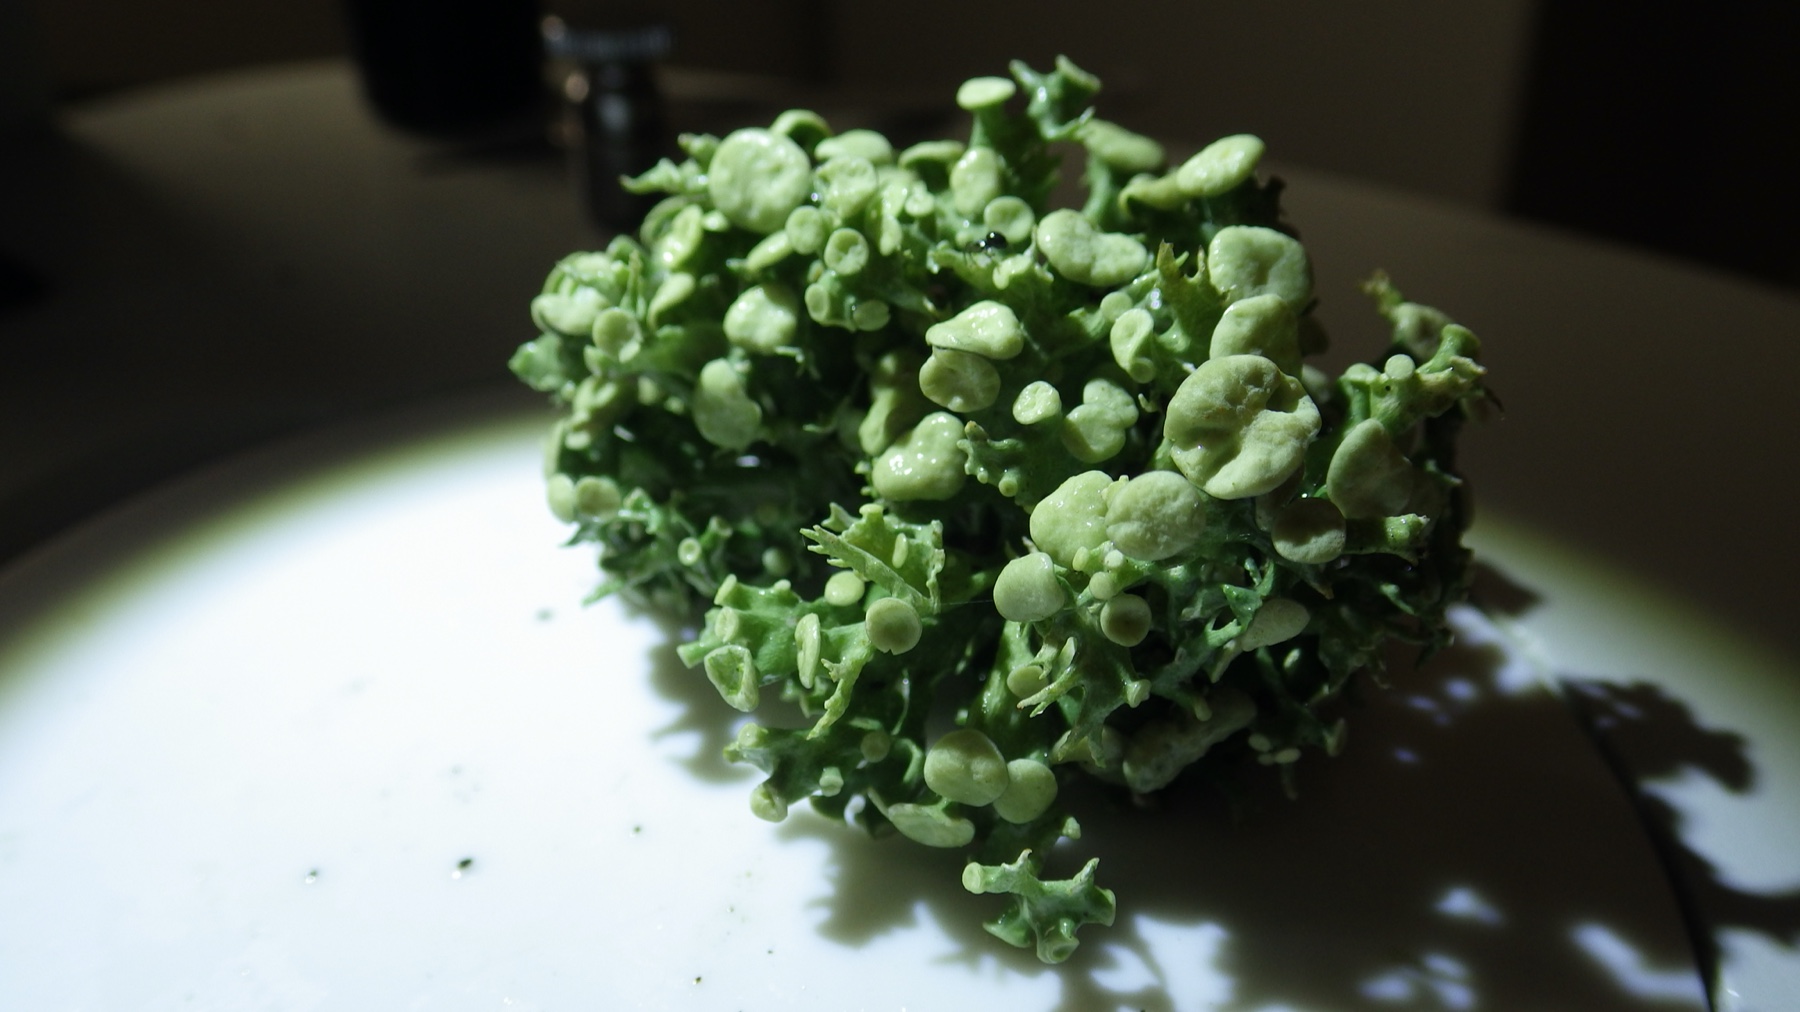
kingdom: Fungi
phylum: Ascomycota
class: Lecanoromycetes
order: Lecanorales
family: Ramalinaceae
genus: Ramalina
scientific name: Ramalina fastigiata
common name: tue-grenlav
